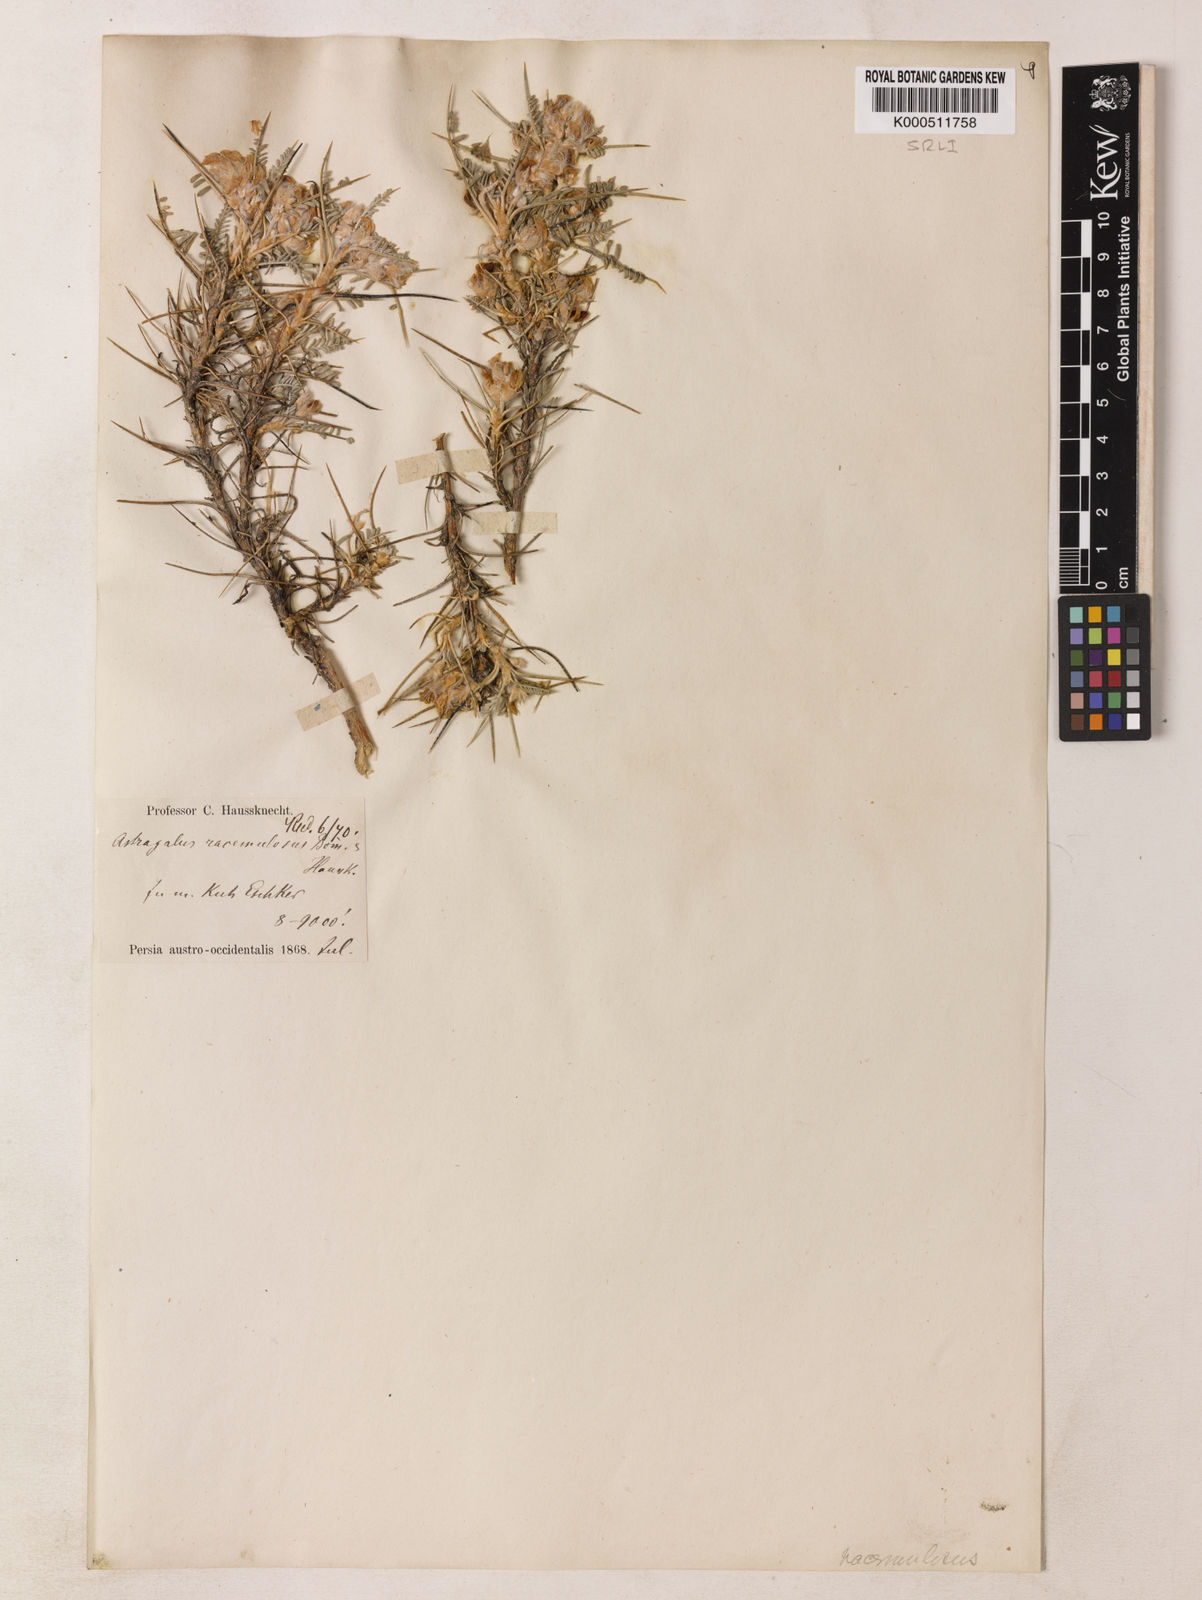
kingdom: Plantae
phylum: Tracheophyta
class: Magnoliopsida
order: Fabales
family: Fabaceae
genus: Astragalus
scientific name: Astragalus ecbatanus
